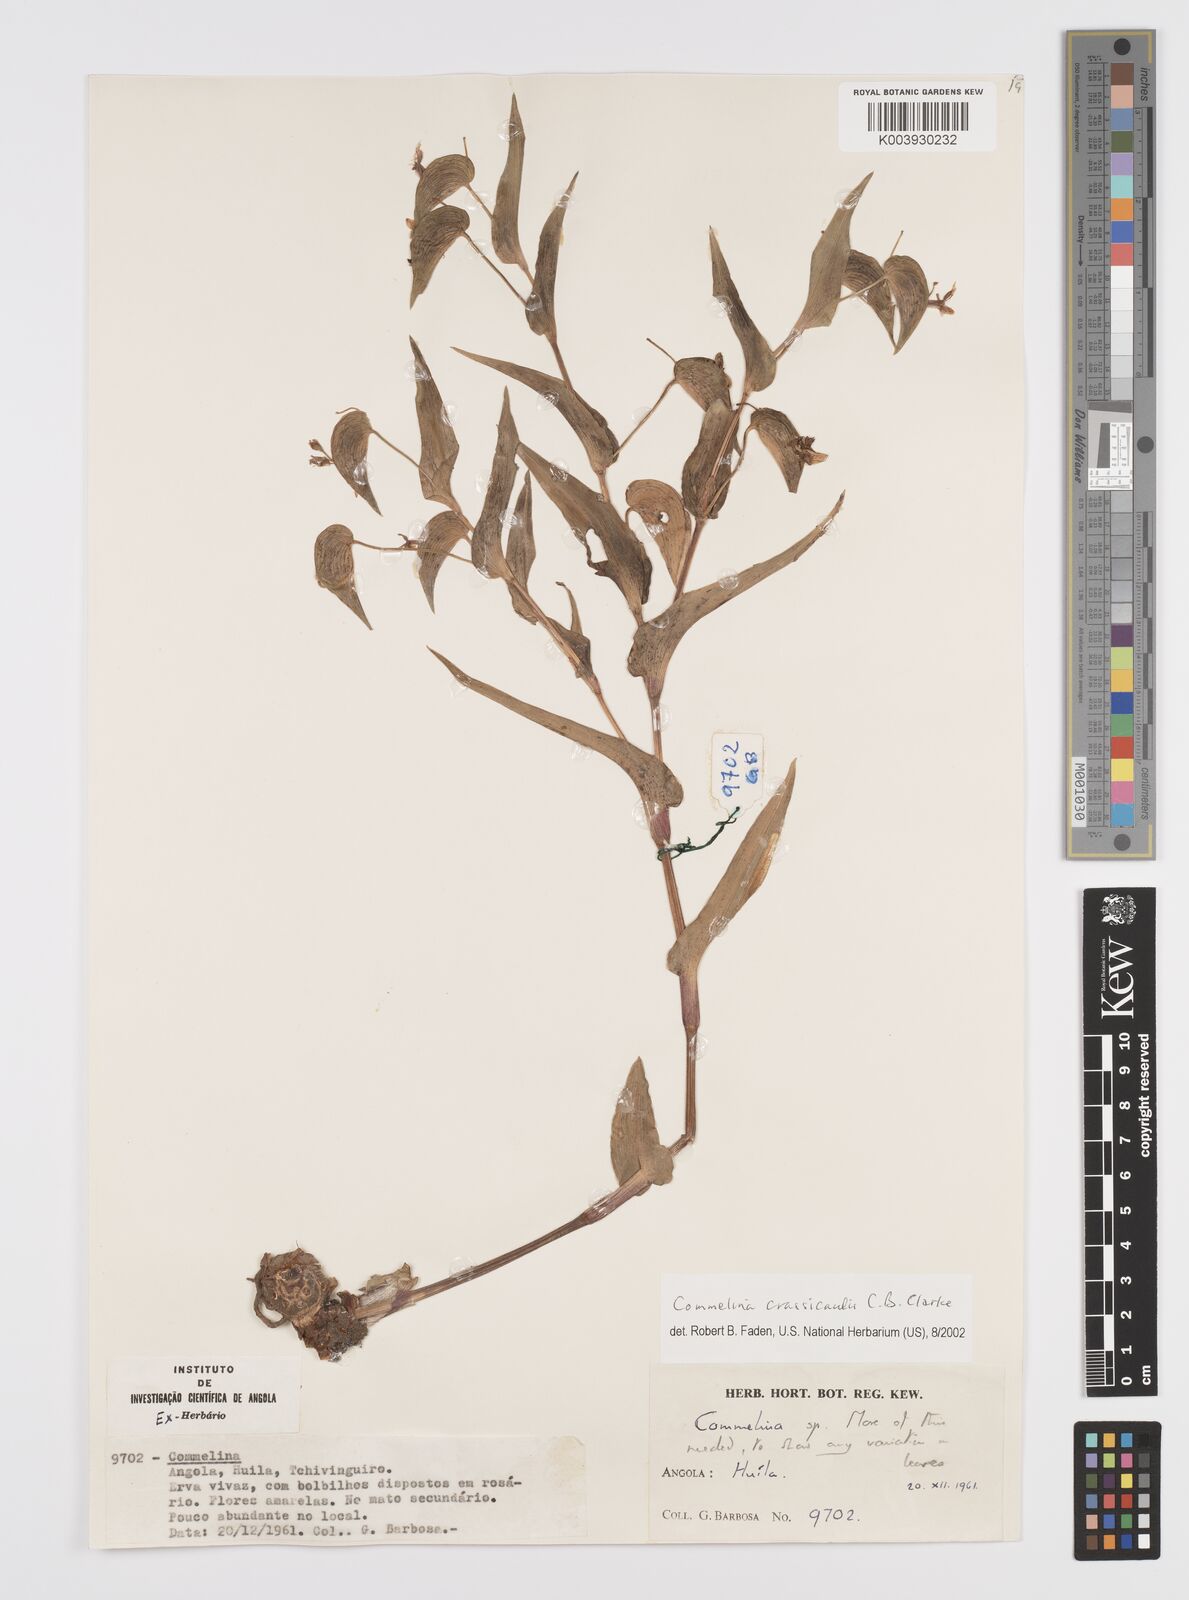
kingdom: Plantae
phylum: Tracheophyta
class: Liliopsida
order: Commelinales
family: Commelinaceae
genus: Commelina
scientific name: Commelina crassicaulis
